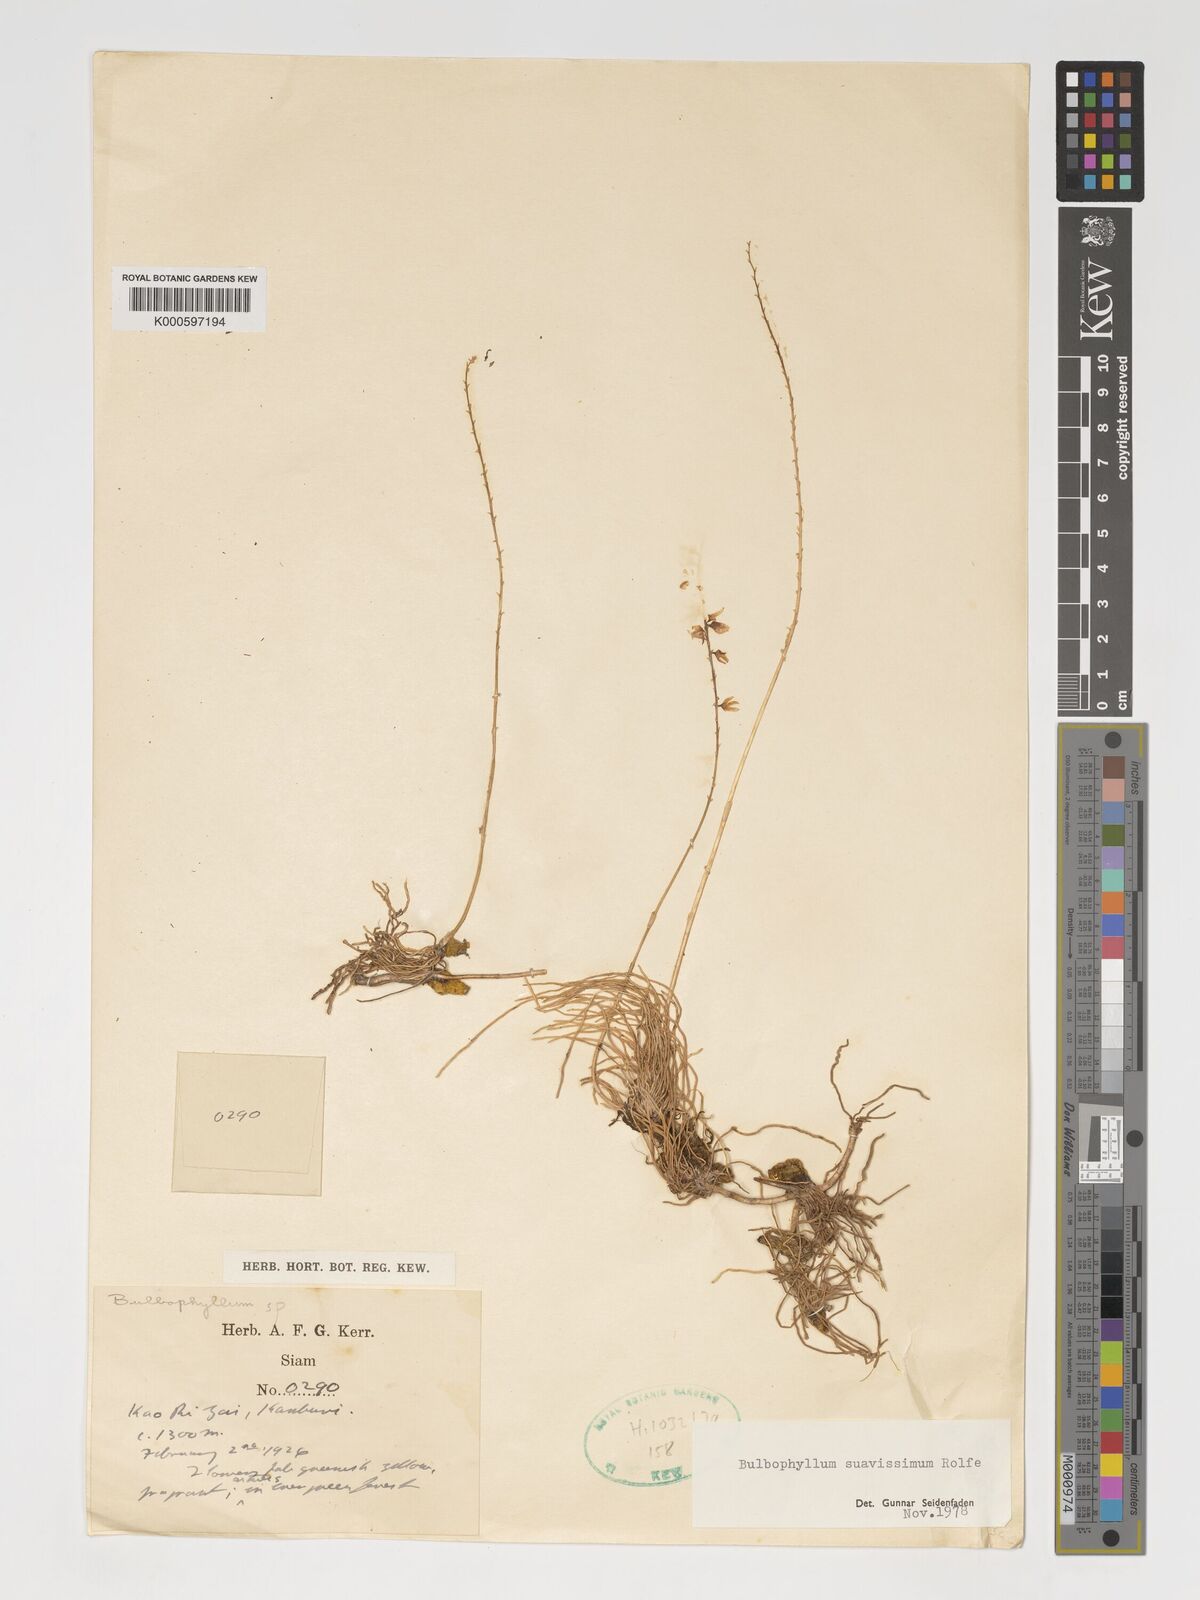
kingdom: Plantae
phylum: Tracheophyta
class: Liliopsida
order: Asparagales
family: Orchidaceae
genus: Bulbophyllum
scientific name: Bulbophyllum suavissimum
